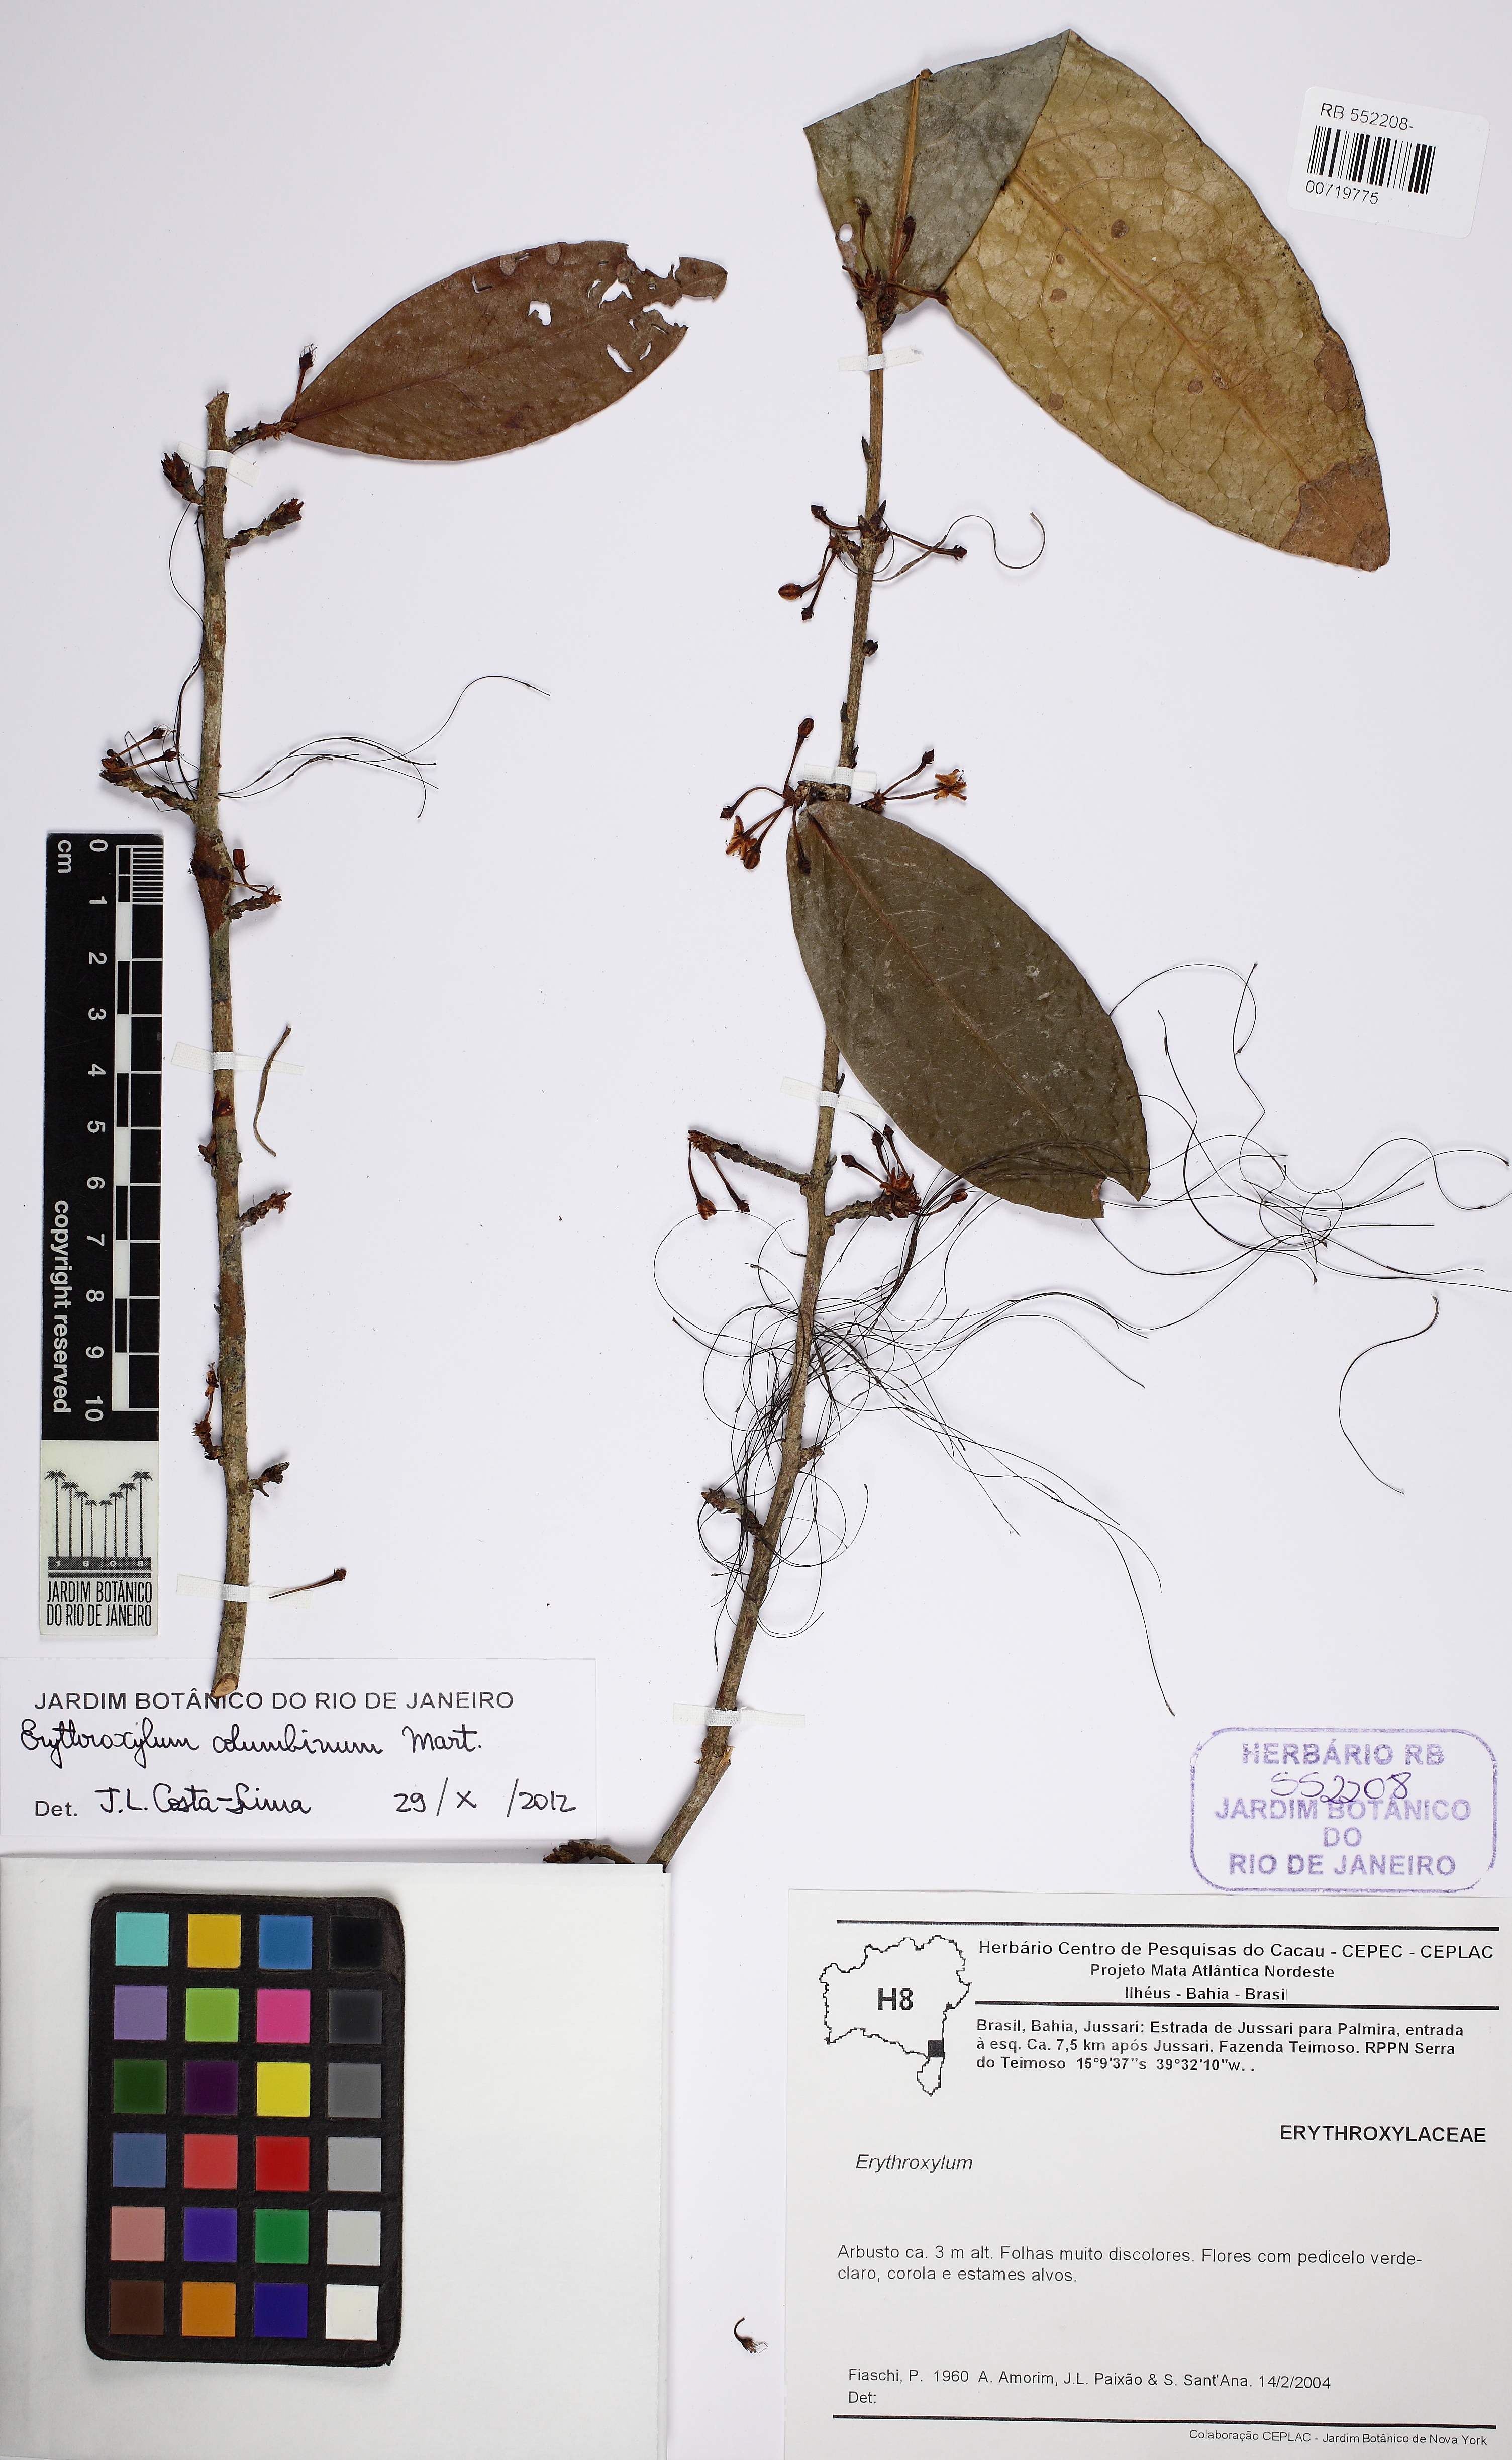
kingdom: Plantae
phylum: Tracheophyta
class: Magnoliopsida
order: Malpighiales
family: Erythroxylaceae
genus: Erythroxylum
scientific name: Erythroxylum columbinum
